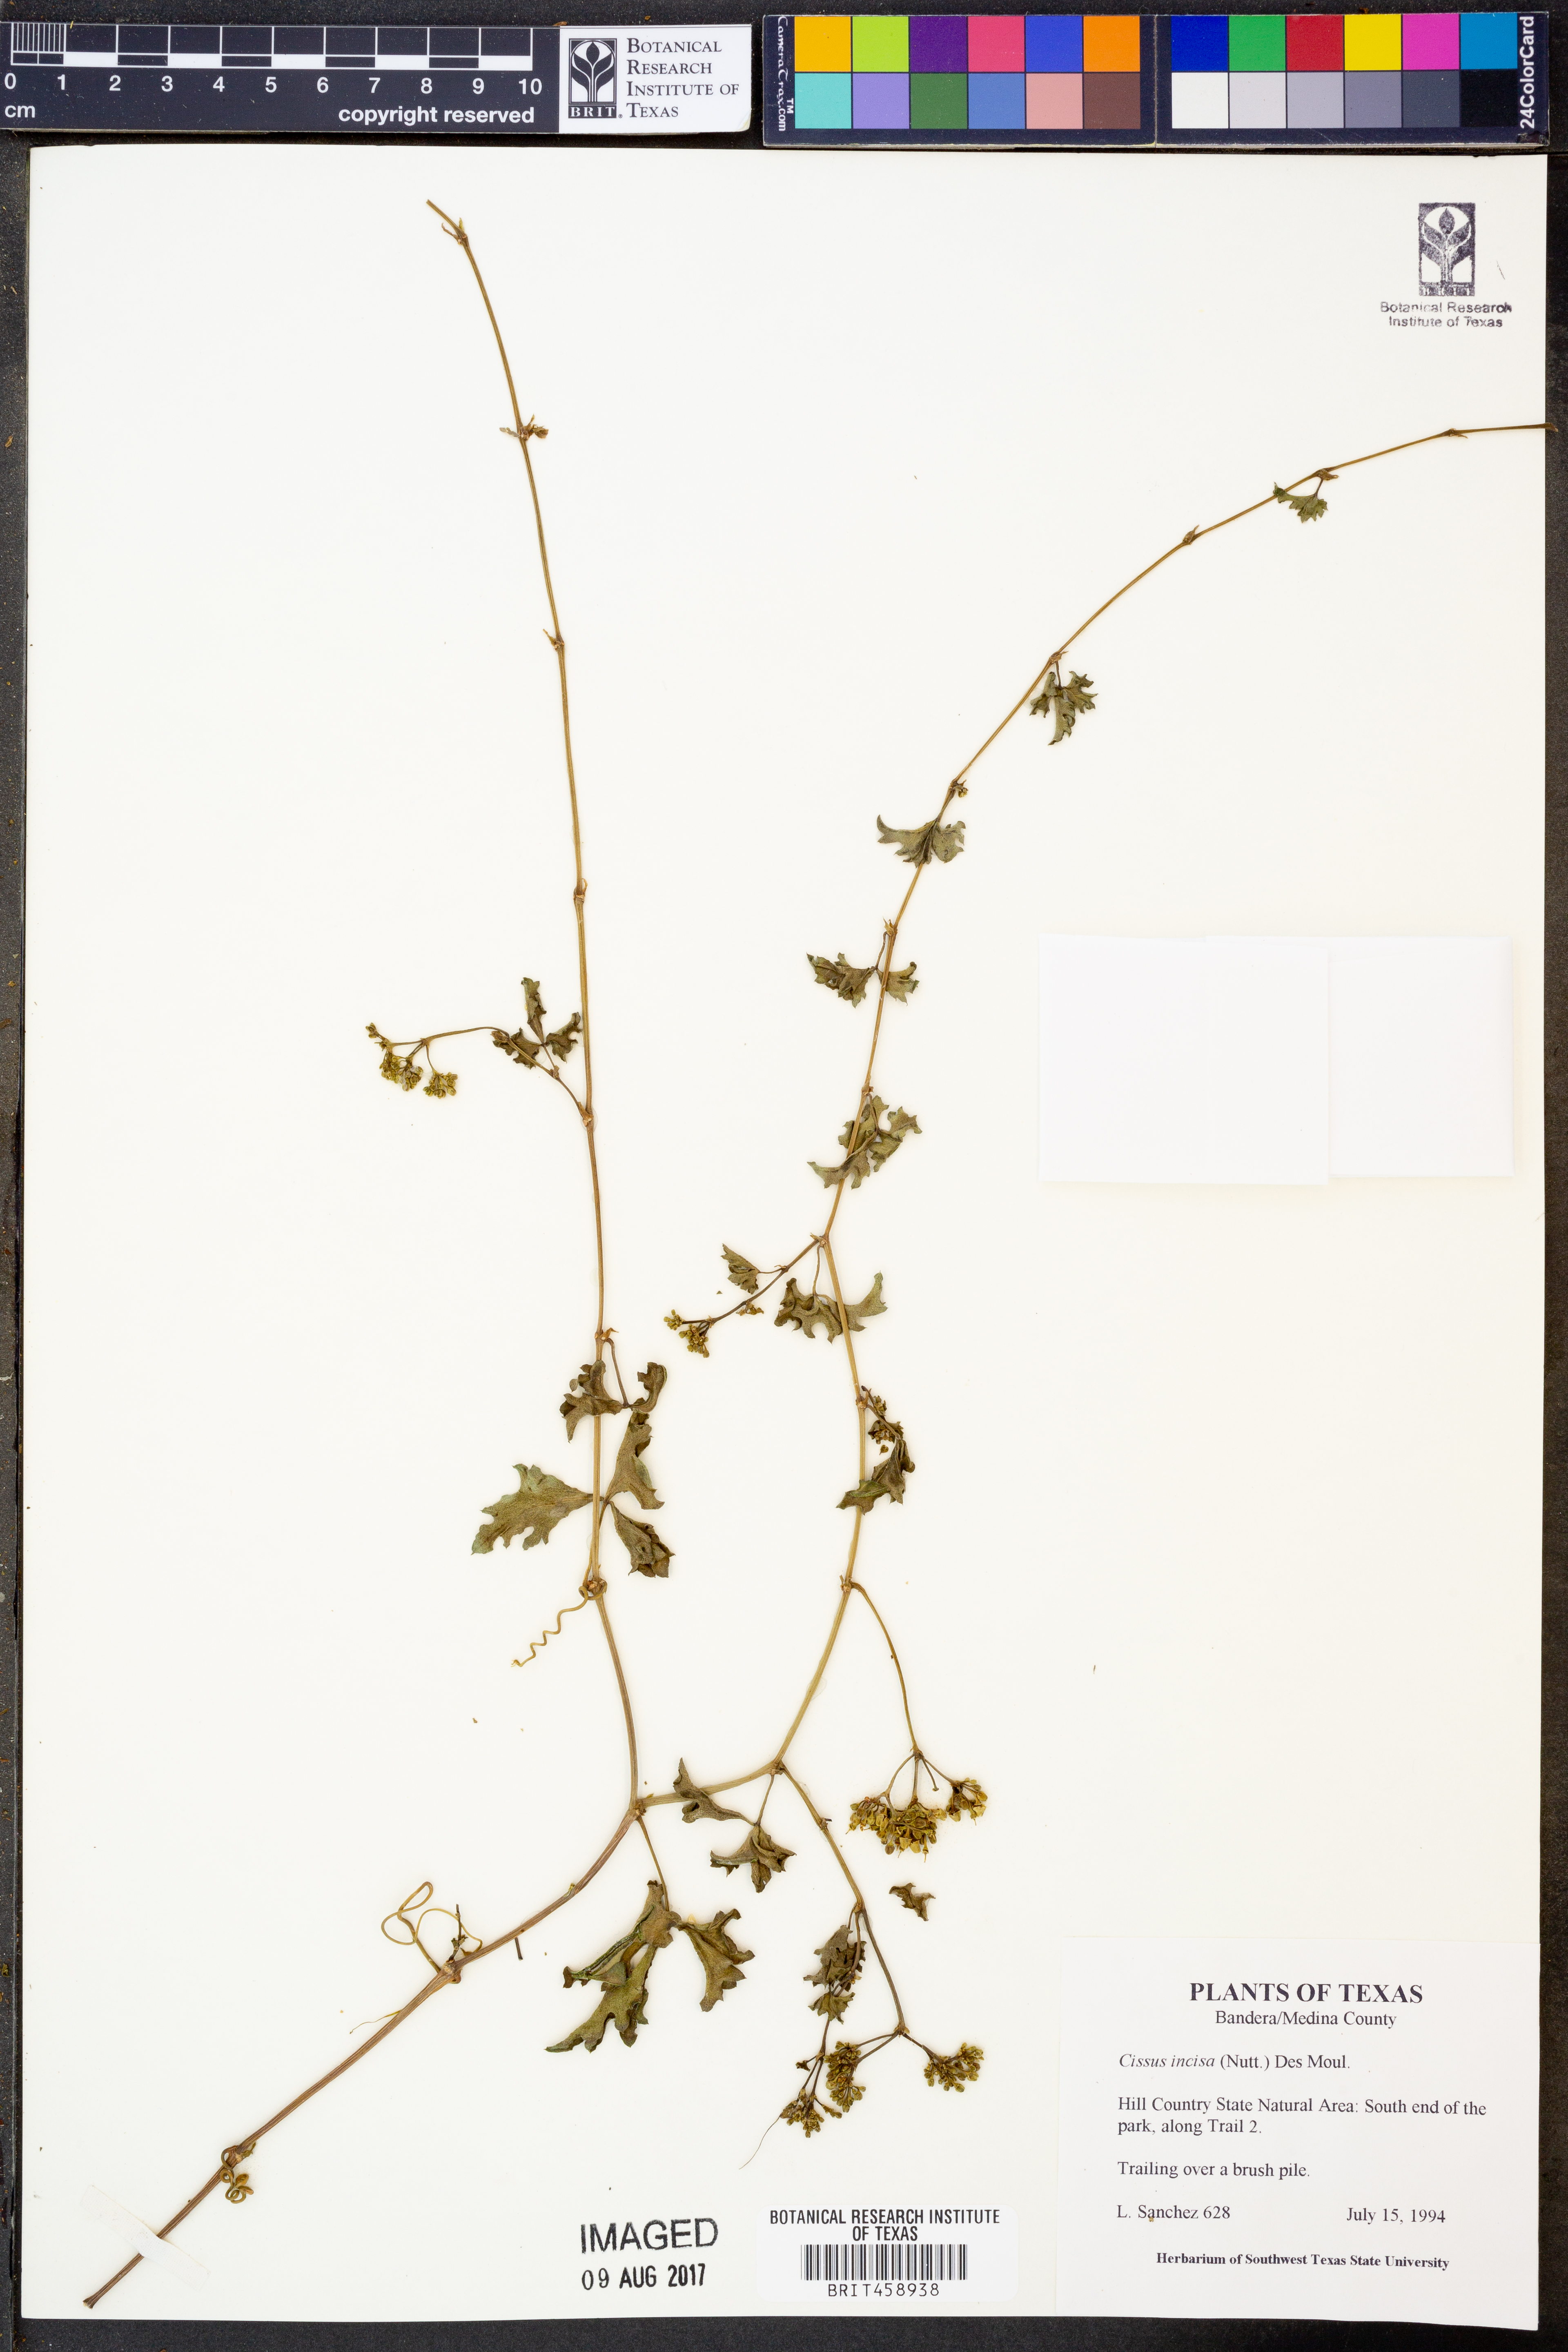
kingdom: Plantae
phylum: Tracheophyta
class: Magnoliopsida
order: Vitales
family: Vitaceae
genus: Cissus
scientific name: Cissus trifoliata
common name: Vine-sorrel
